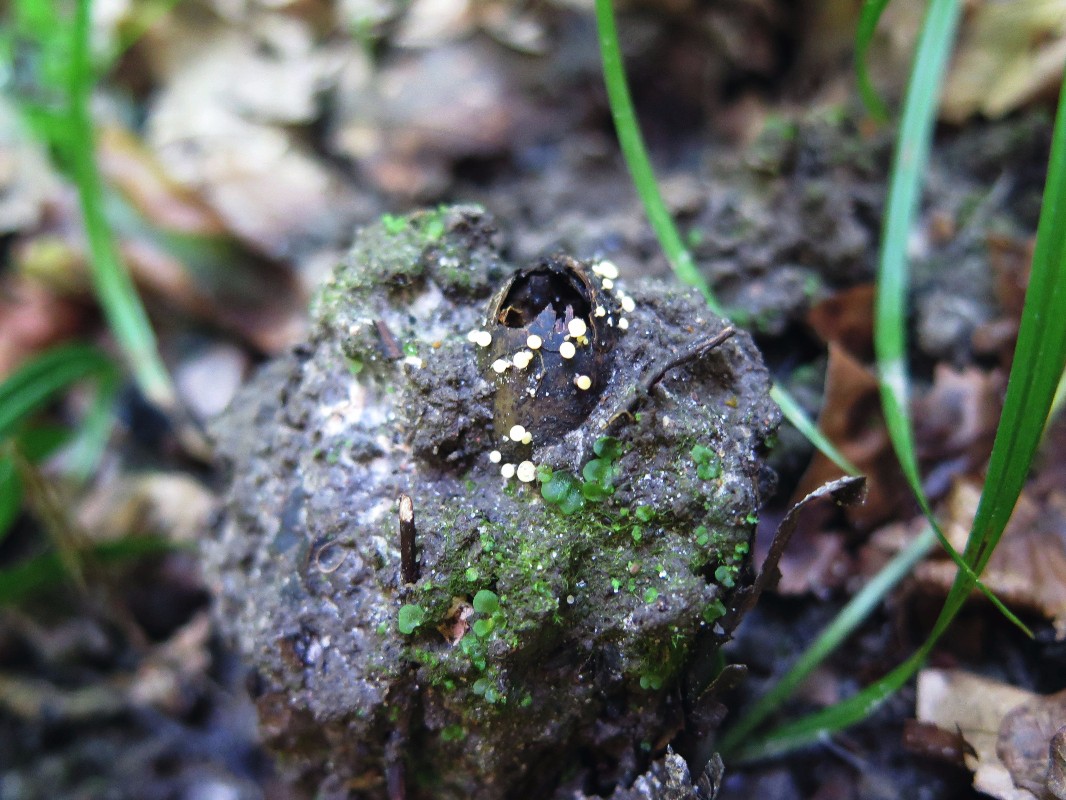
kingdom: Fungi
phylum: Ascomycota
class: Leotiomycetes
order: Helotiales
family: Helotiaceae
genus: Hymenoscyphus
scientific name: Hymenoscyphus fructigenus
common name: frugt-stilkskive
